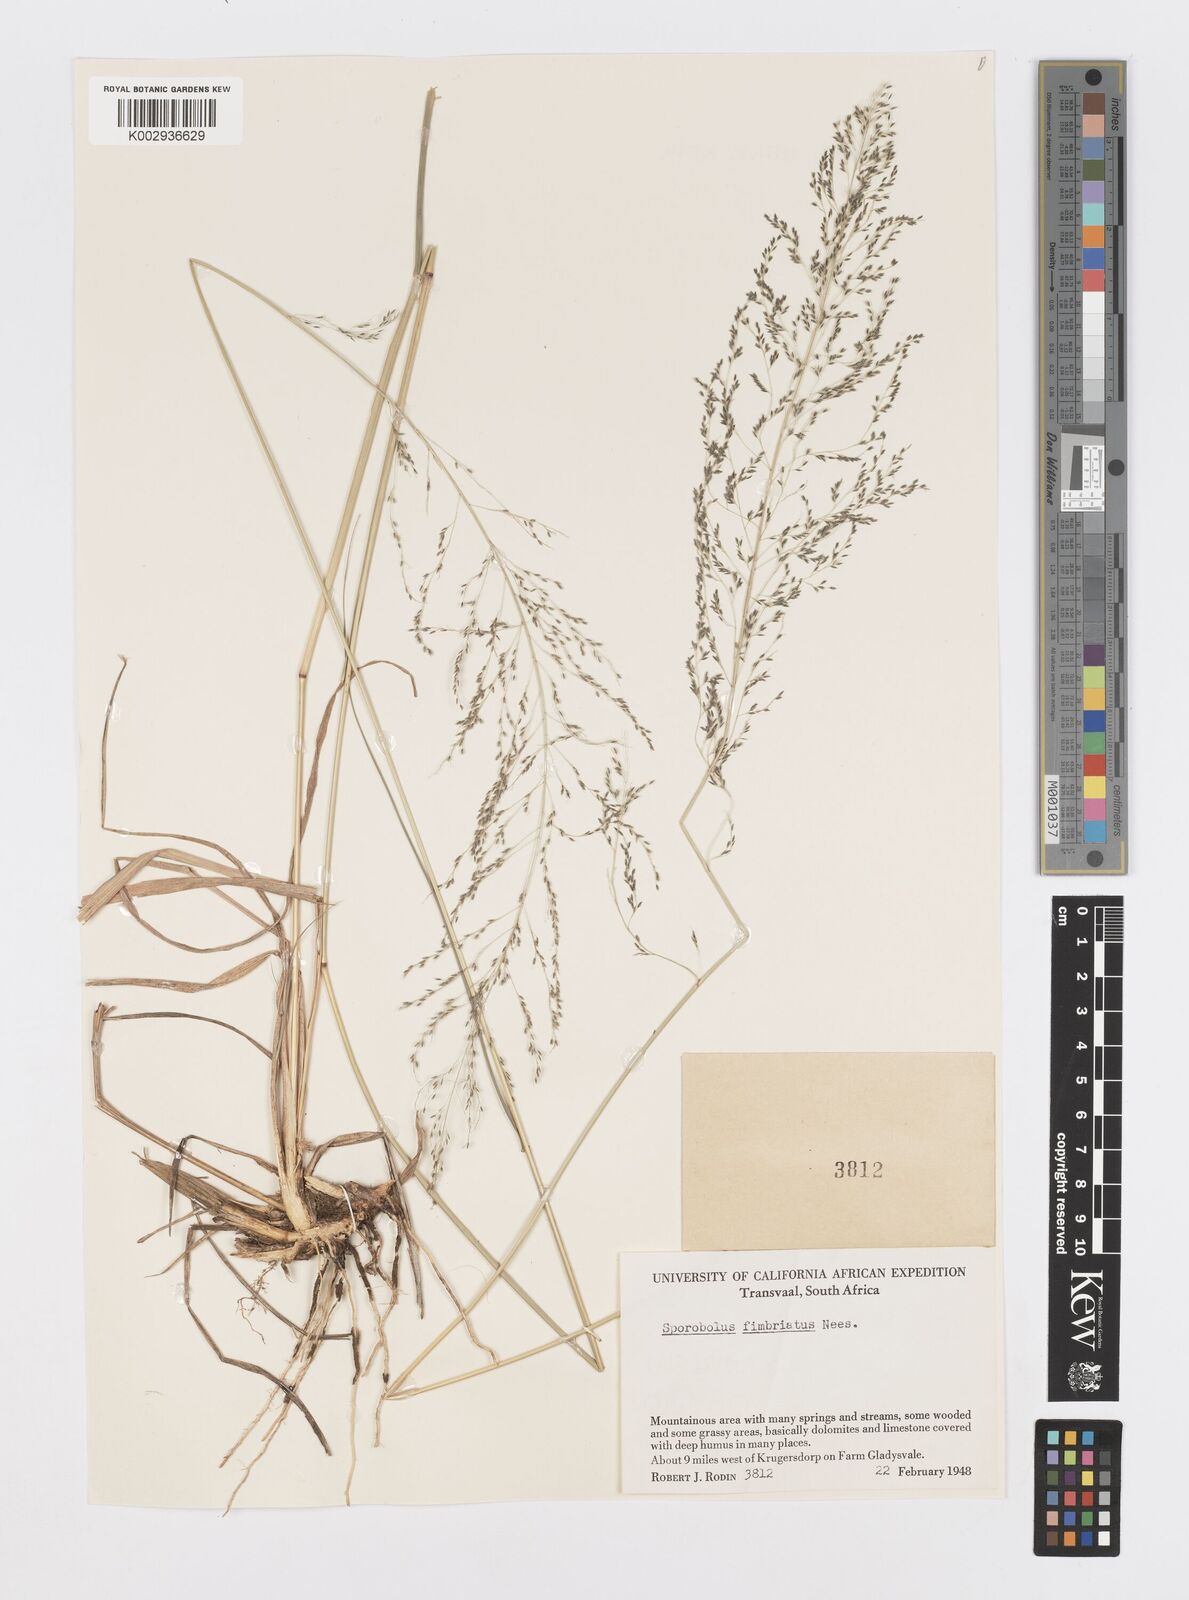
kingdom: Plantae
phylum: Tracheophyta
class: Liliopsida
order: Poales
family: Poaceae
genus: Sporobolus
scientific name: Sporobolus fimbriatus
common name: Fringed dropseed
